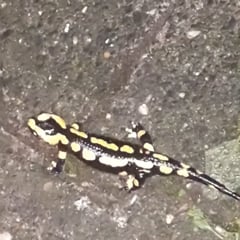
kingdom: Animalia
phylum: Chordata
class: Amphibia
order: Caudata
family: Salamandridae
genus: Salamandra
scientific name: Salamandra salamandra
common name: Fire salamander
